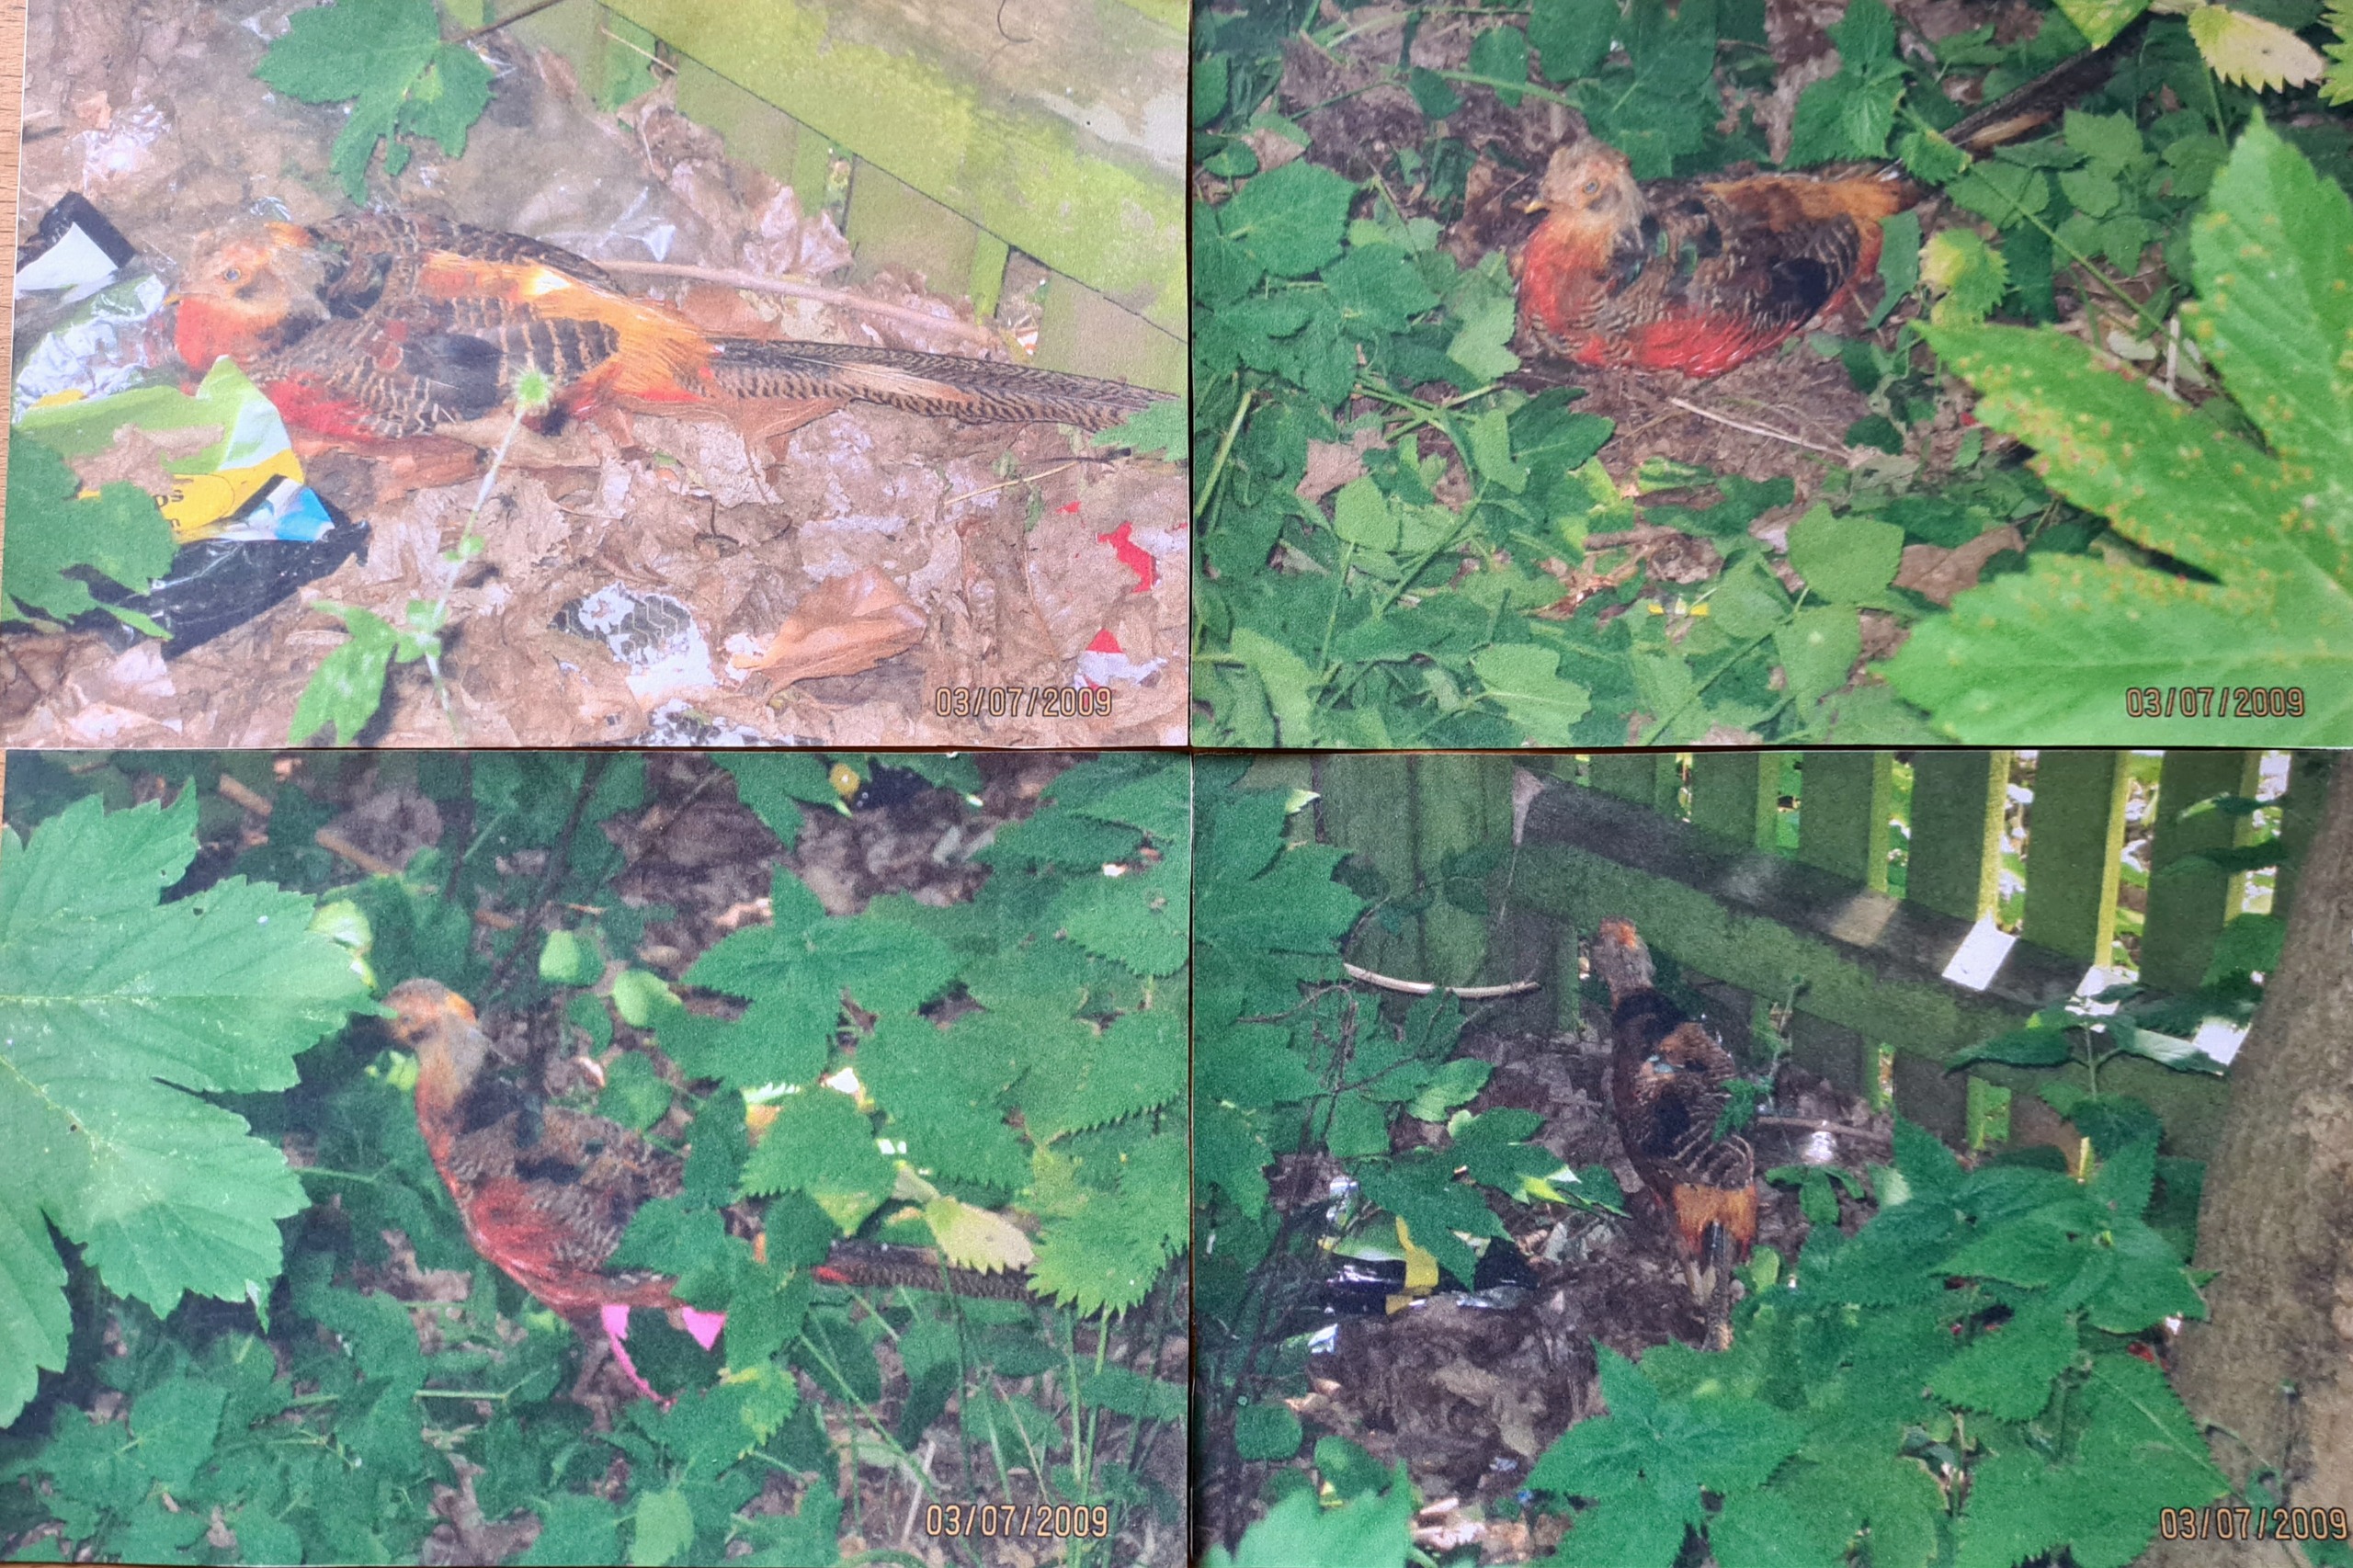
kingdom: Animalia
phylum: Chordata
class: Aves
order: Galliformes
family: Phasianidae
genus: Chrysolophus
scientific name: Chrysolophus pictus
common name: Guldfasan
